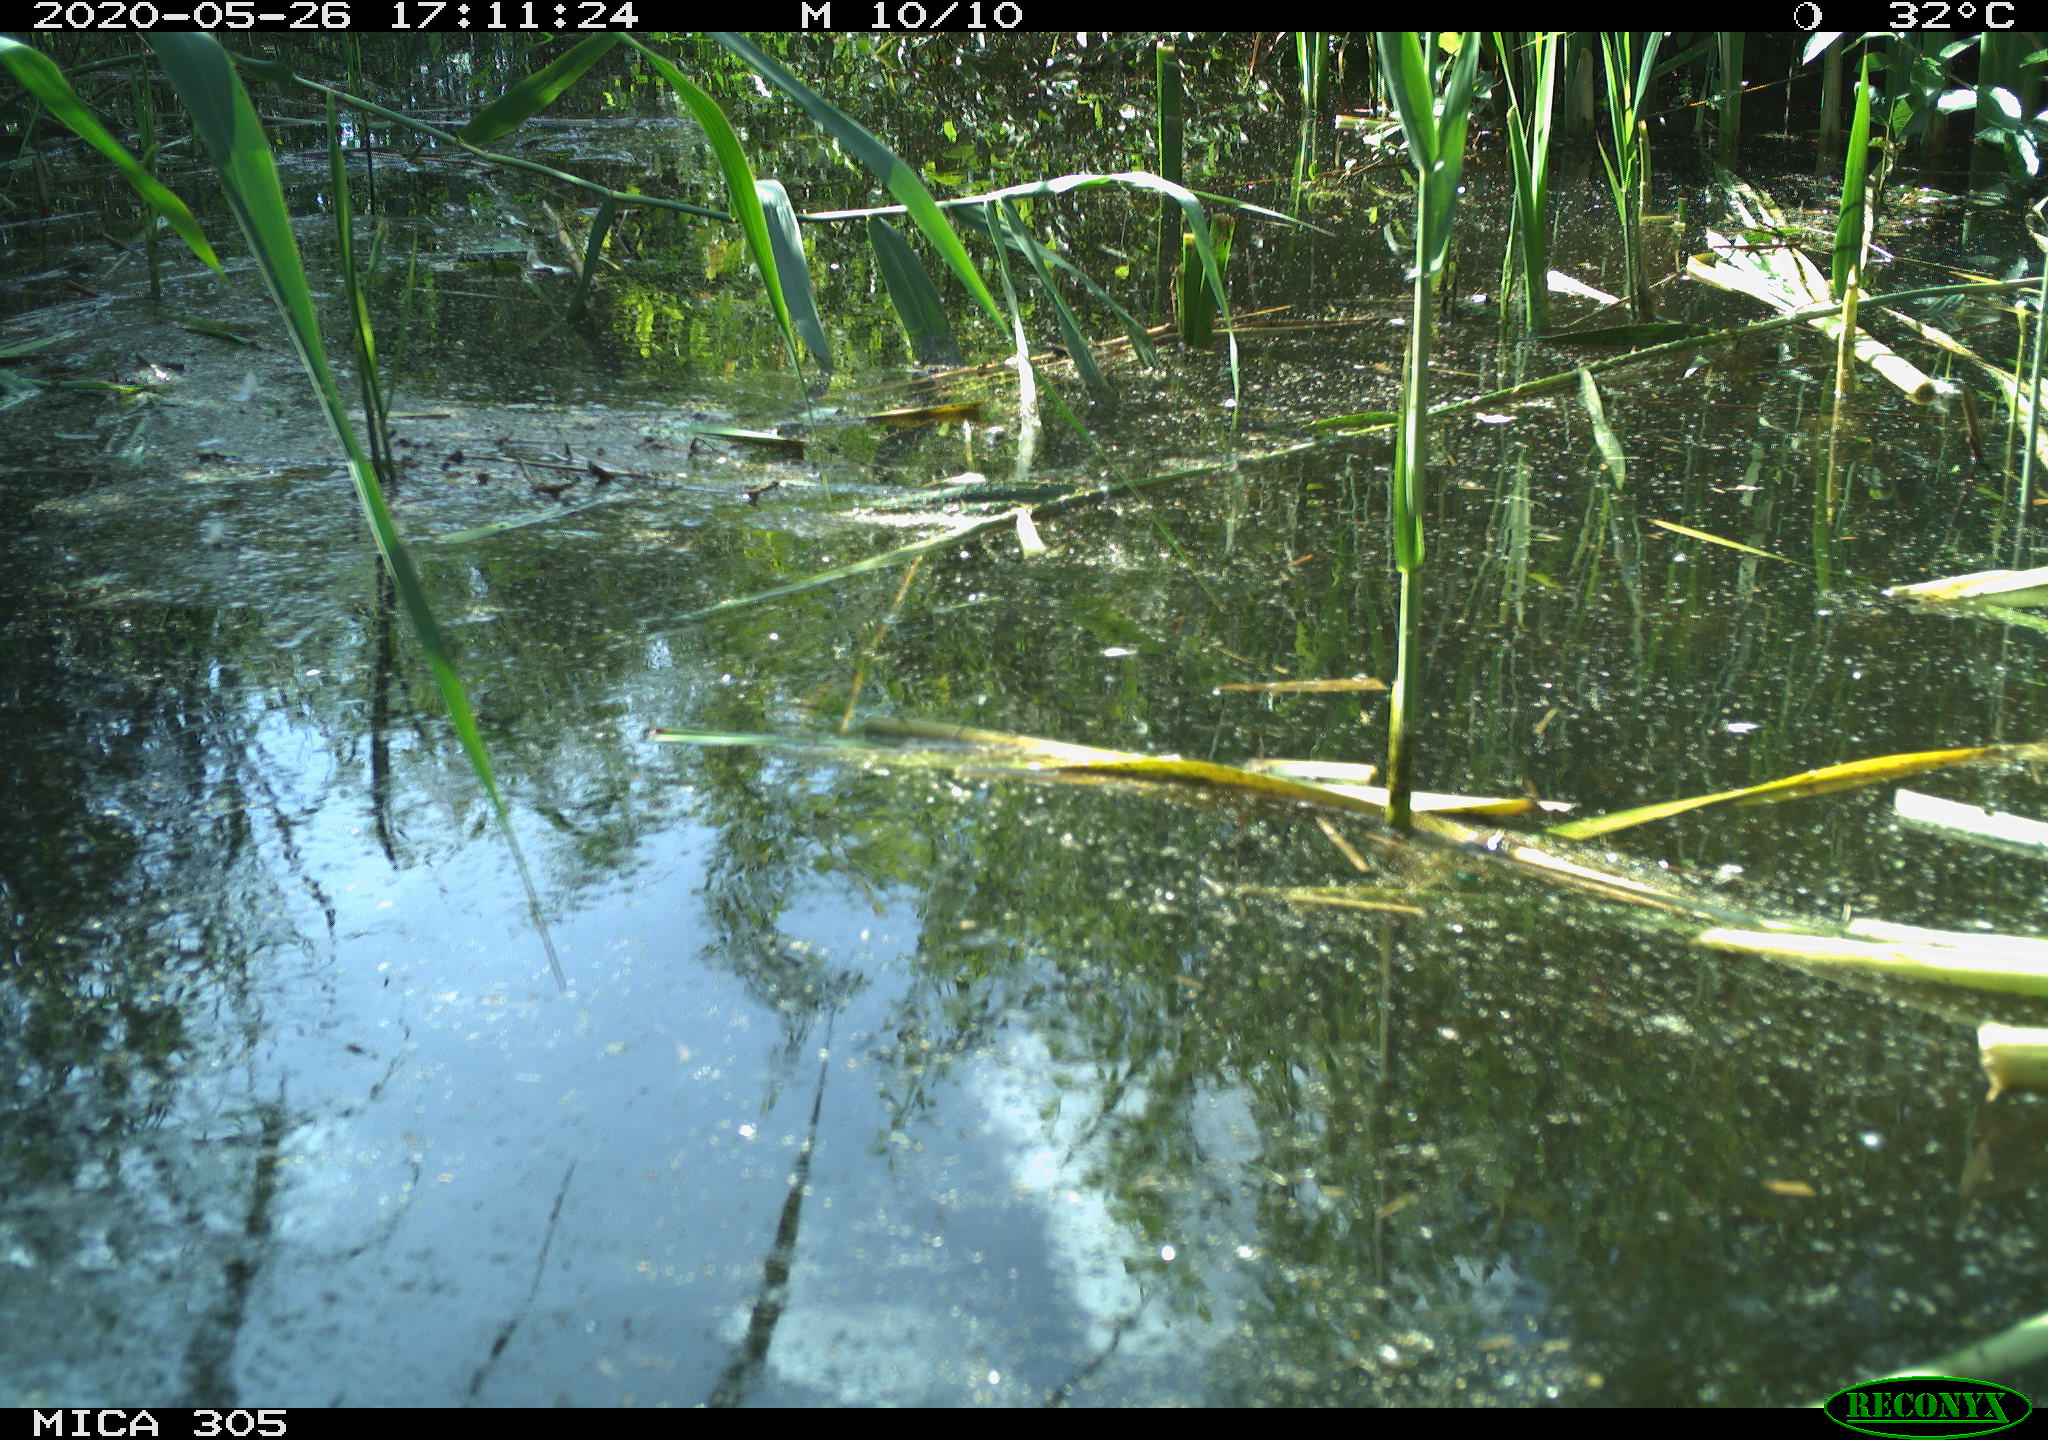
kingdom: Animalia
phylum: Chordata
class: Aves
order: Gruiformes
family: Rallidae
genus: Gallinula
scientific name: Gallinula chloropus
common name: Common moorhen
